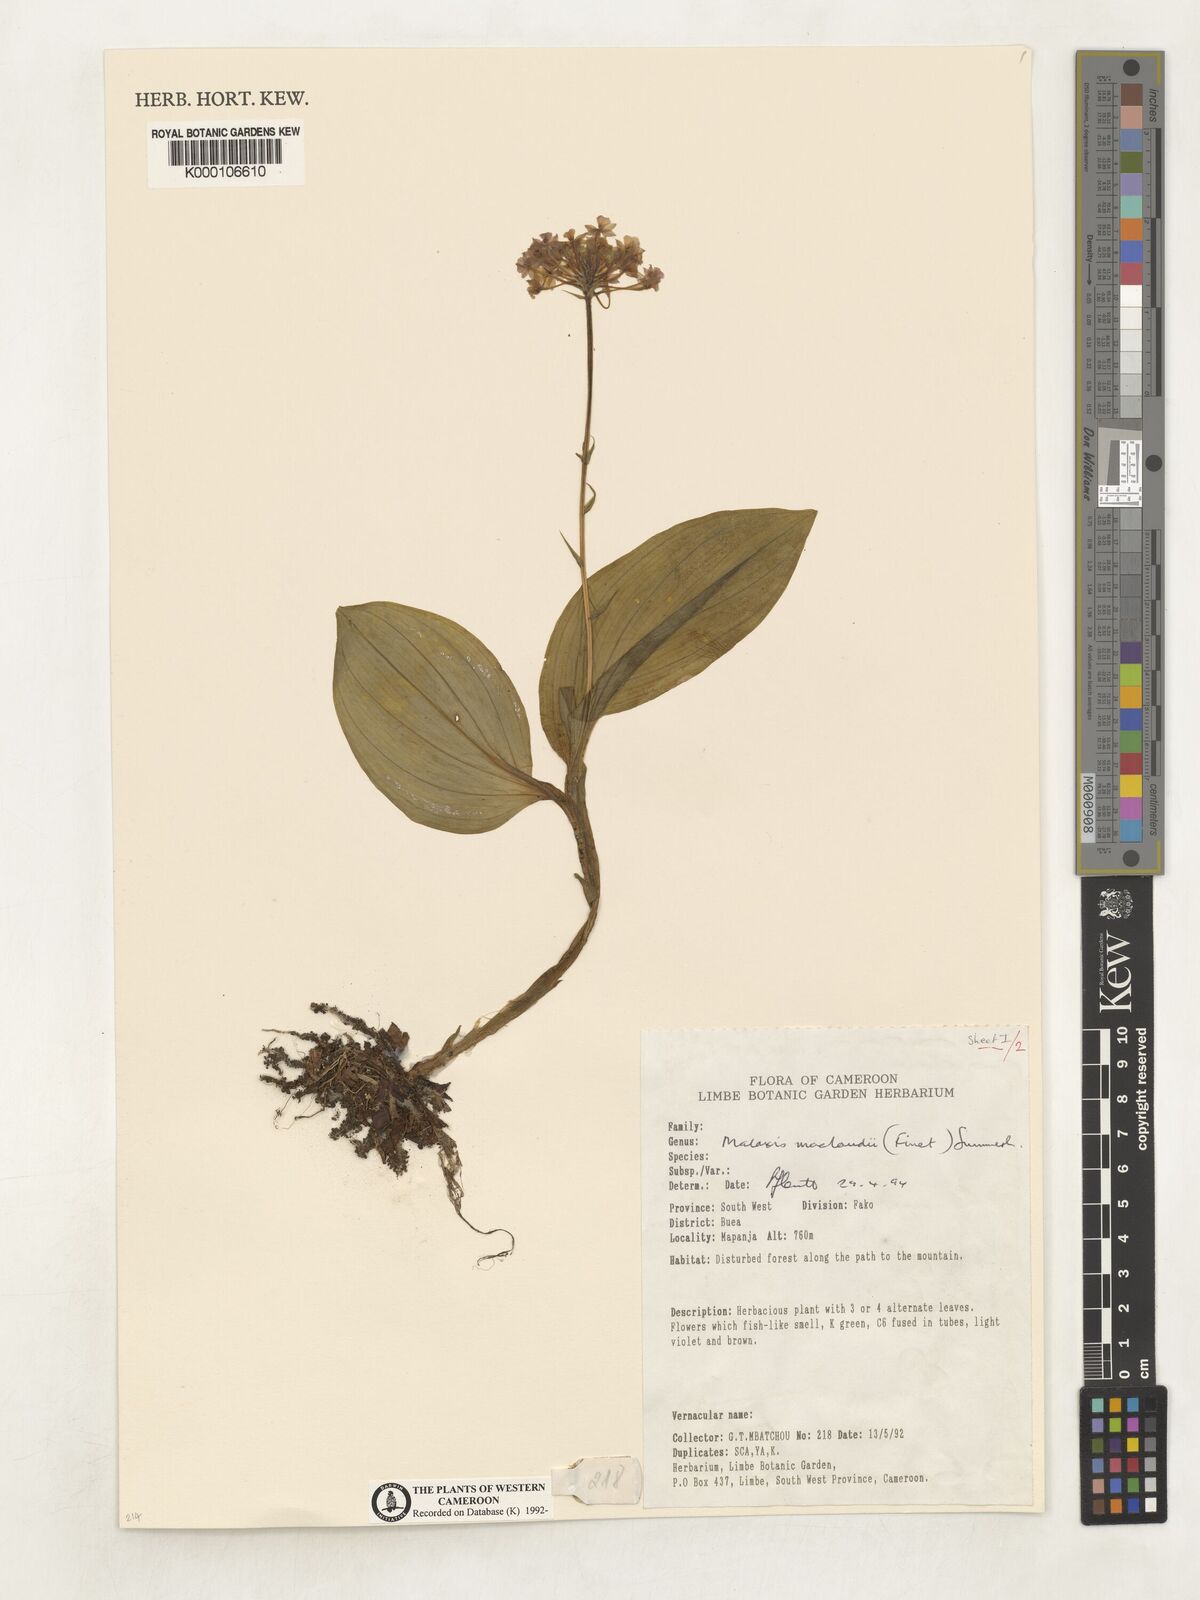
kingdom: Plantae
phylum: Tracheophyta
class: Liliopsida
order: Asparagales
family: Orchidaceae
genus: Malaxis
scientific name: Malaxis maclaudii
